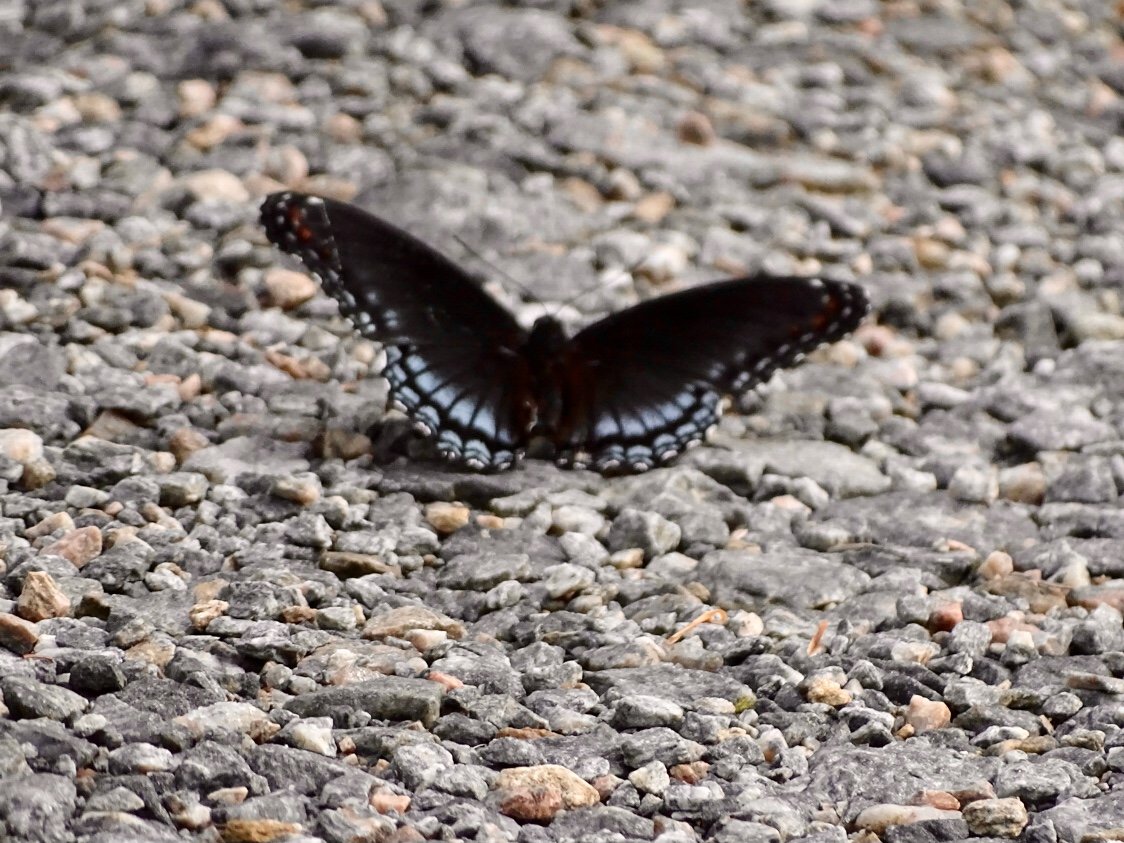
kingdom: Animalia
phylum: Arthropoda
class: Insecta
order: Lepidoptera
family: Nymphalidae
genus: Limenitis
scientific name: Limenitis arthemis
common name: Red-spotted Admiral
